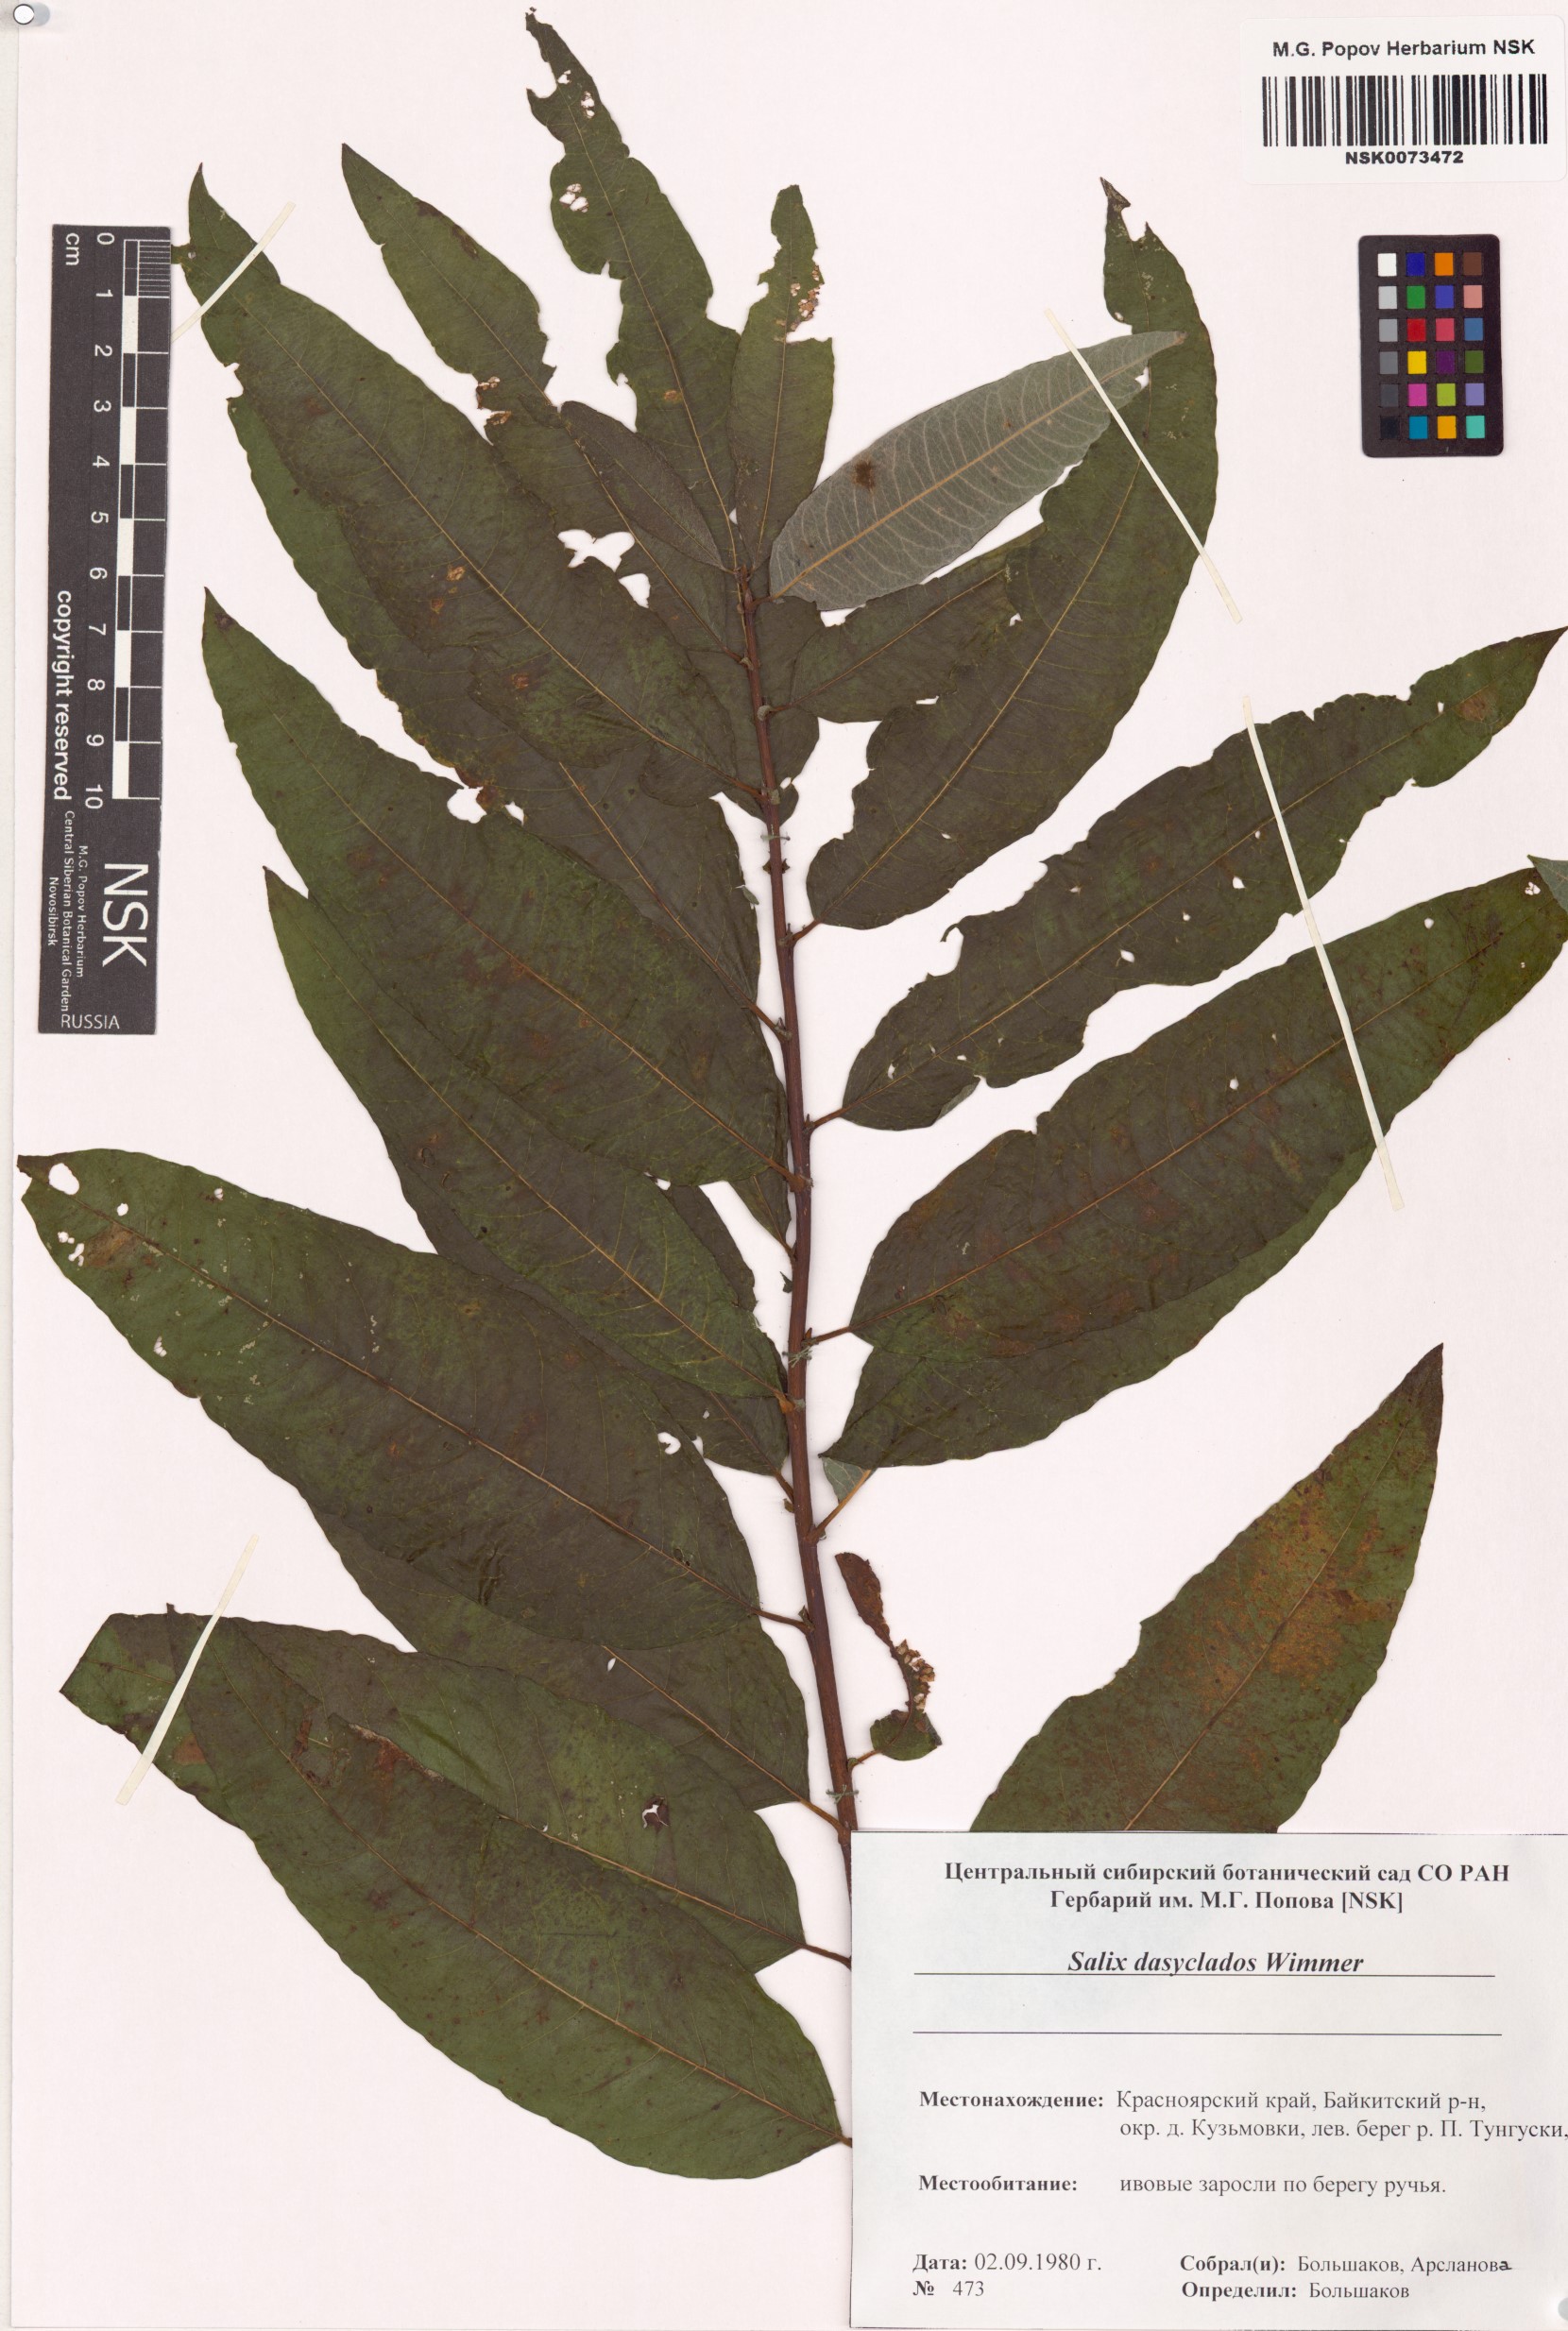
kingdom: Plantae
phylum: Tracheophyta
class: Magnoliopsida
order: Malpighiales
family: Salicaceae
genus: Salix
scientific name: Salix gmelinii
